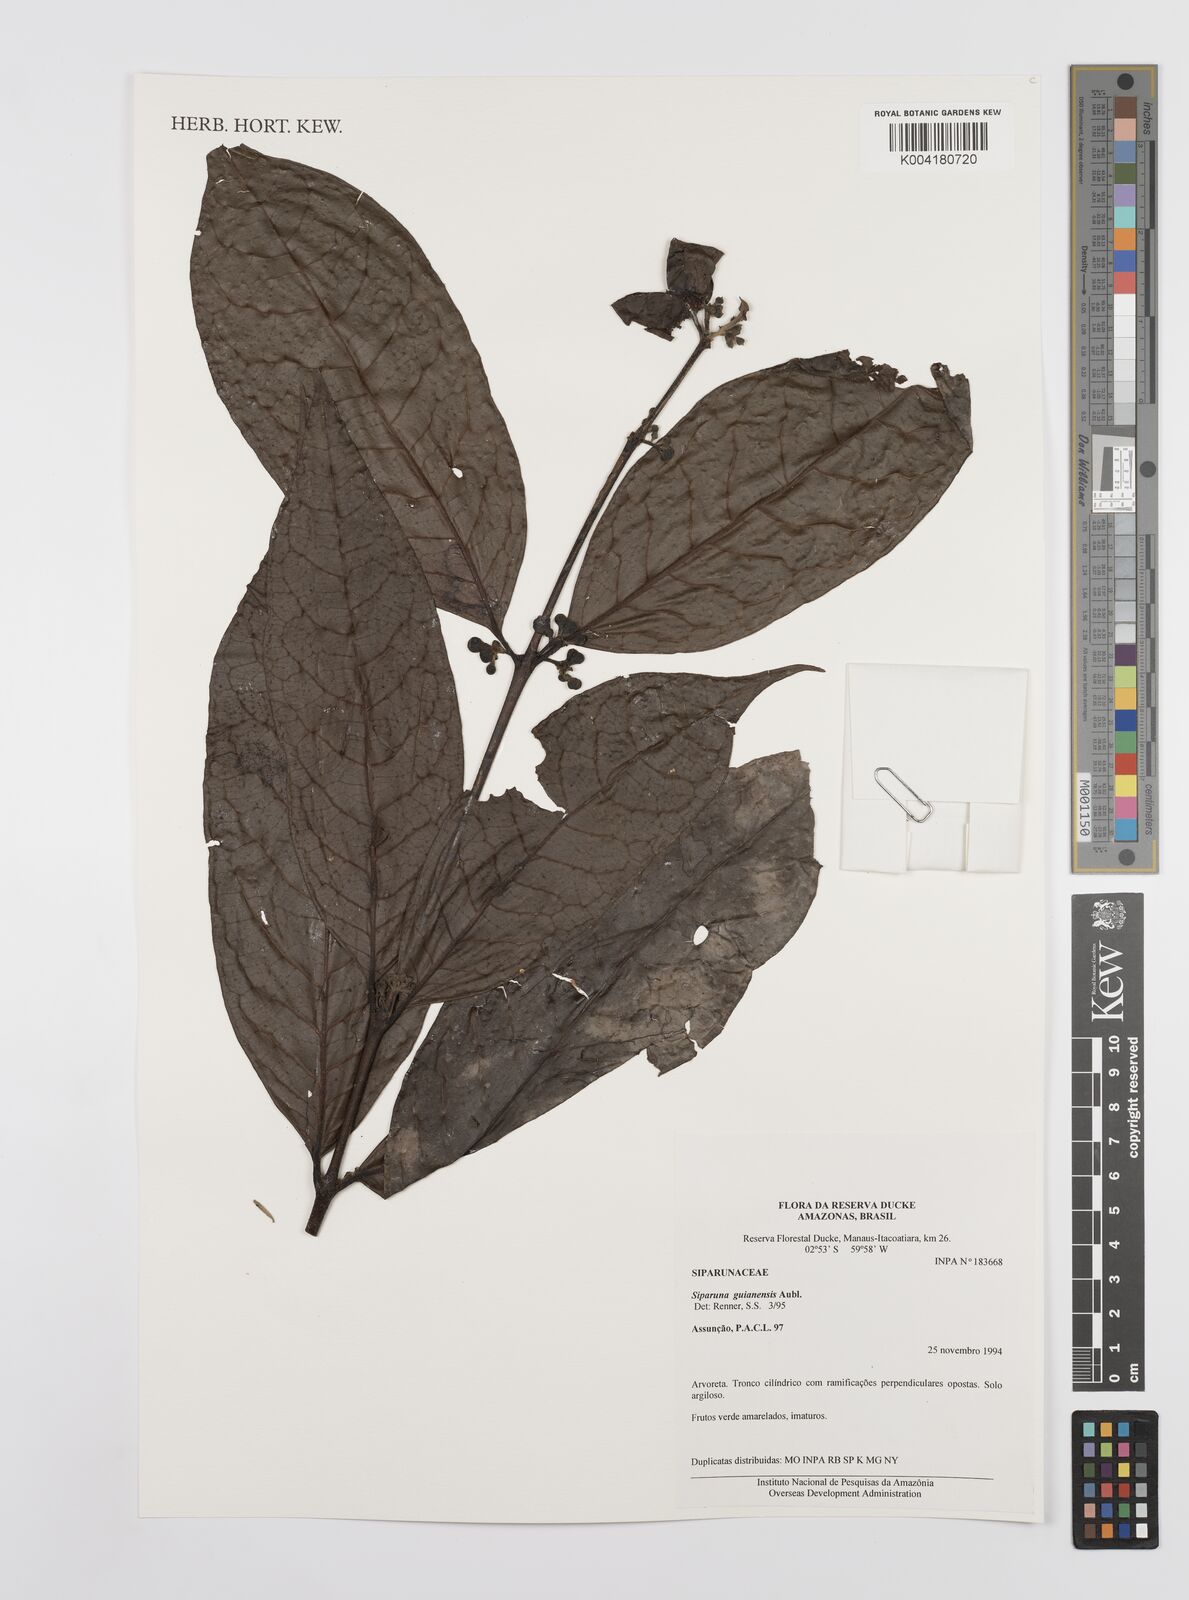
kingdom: Plantae
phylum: Tracheophyta
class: Magnoliopsida
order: Laurales
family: Siparunaceae
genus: Siparuna
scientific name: Siparuna guianensis
